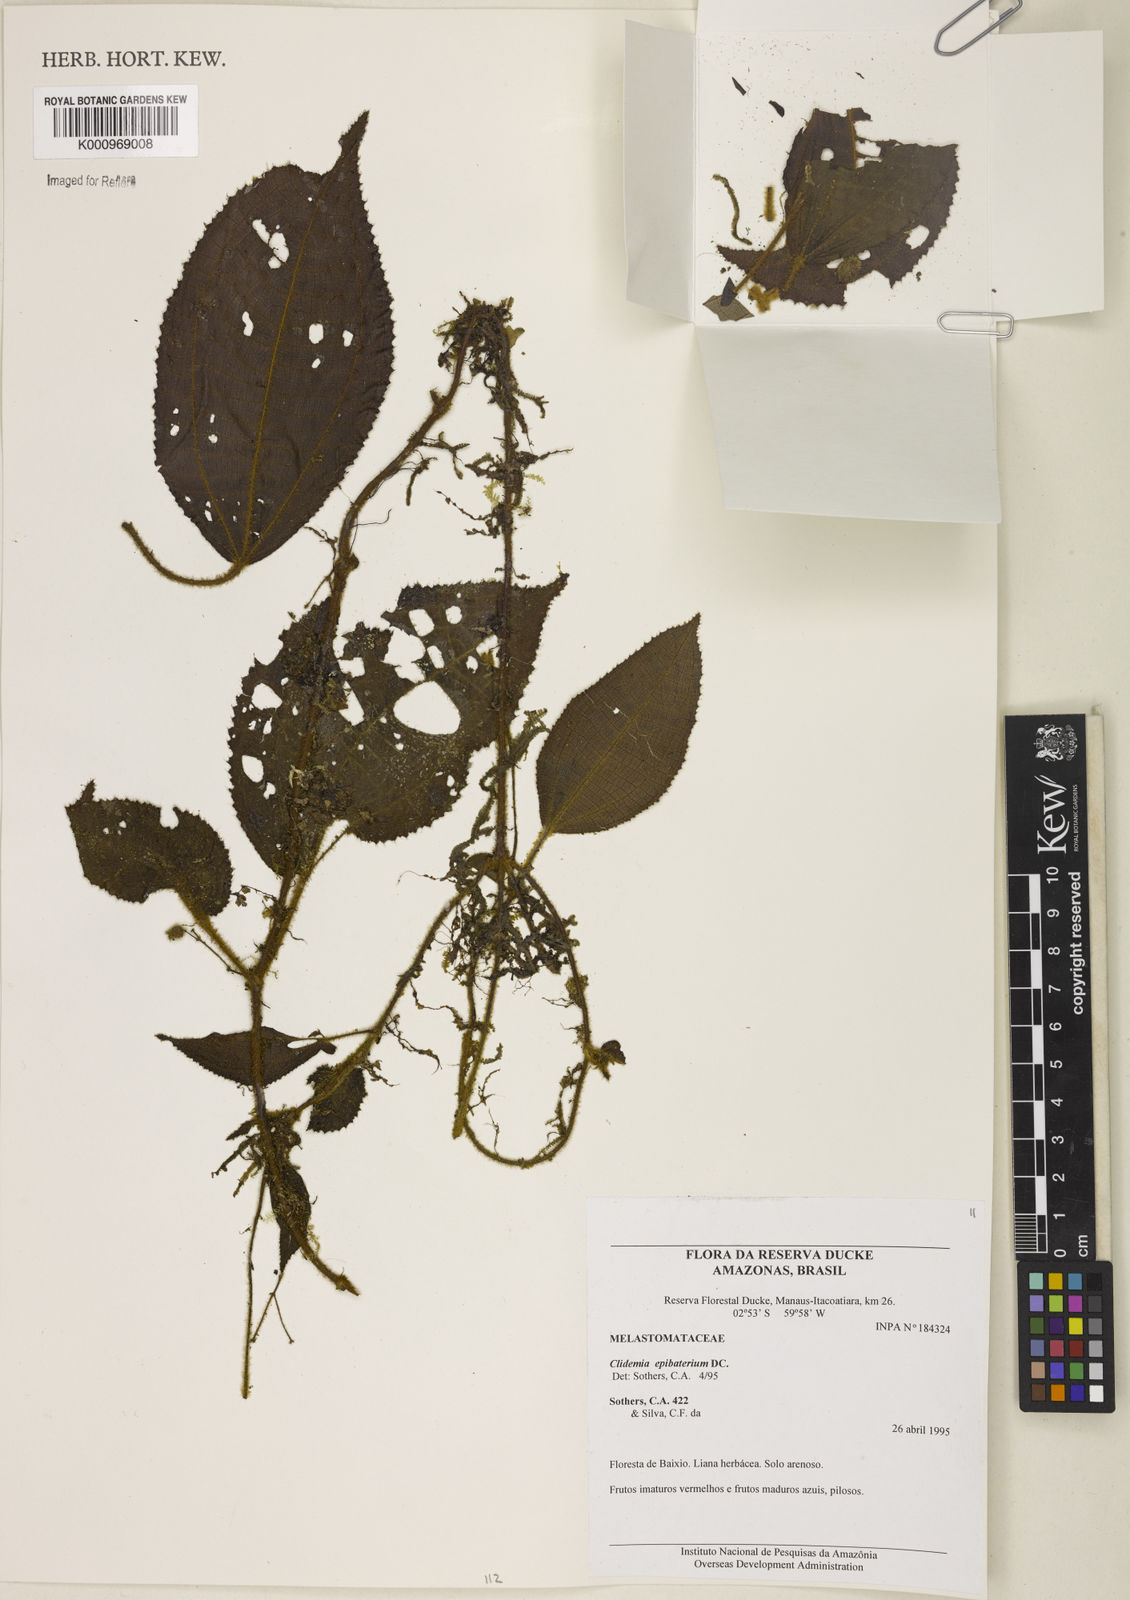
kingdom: Plantae
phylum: Tracheophyta
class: Magnoliopsida
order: Myrtales
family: Melastomataceae
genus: Miconia
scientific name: Miconia epibaterium
